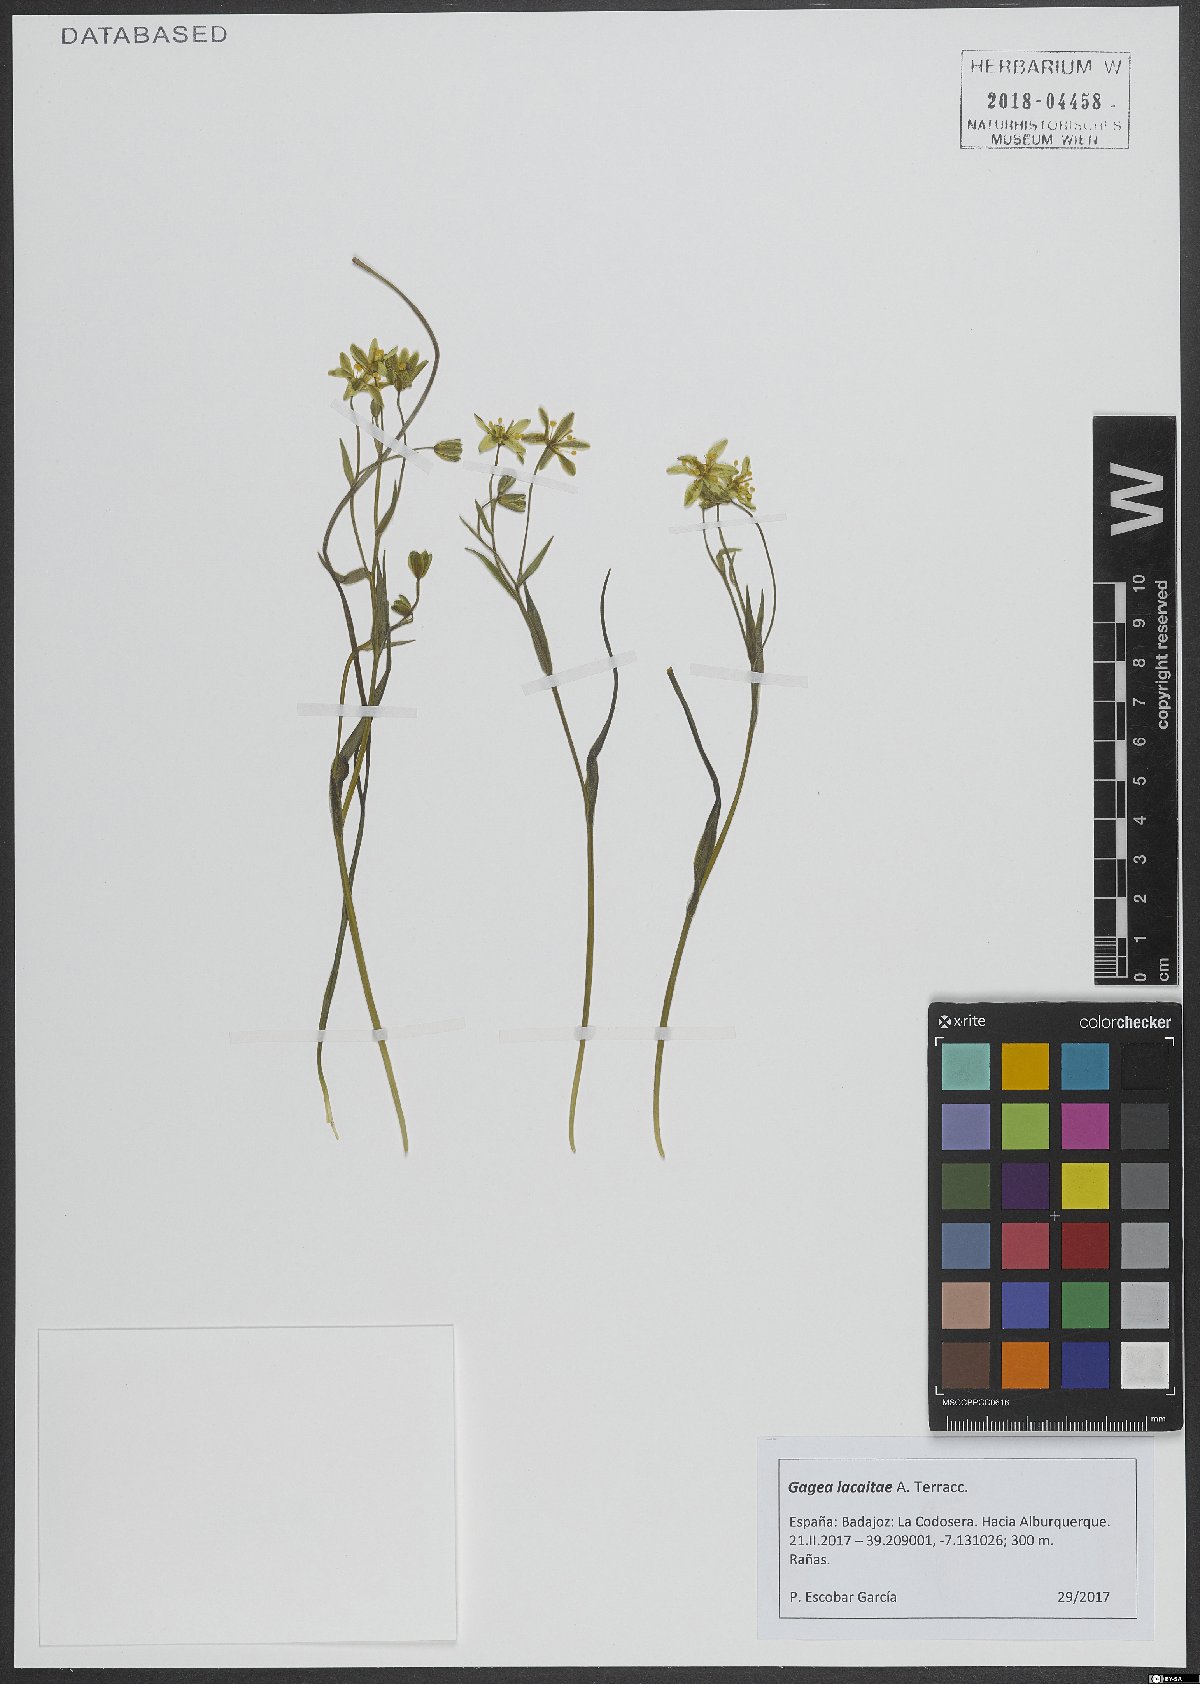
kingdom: Plantae
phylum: Tracheophyta
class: Liliopsida
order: Liliales
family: Liliaceae
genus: Gagea
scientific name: Gagea lacaitae
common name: Gagée de lacaita
